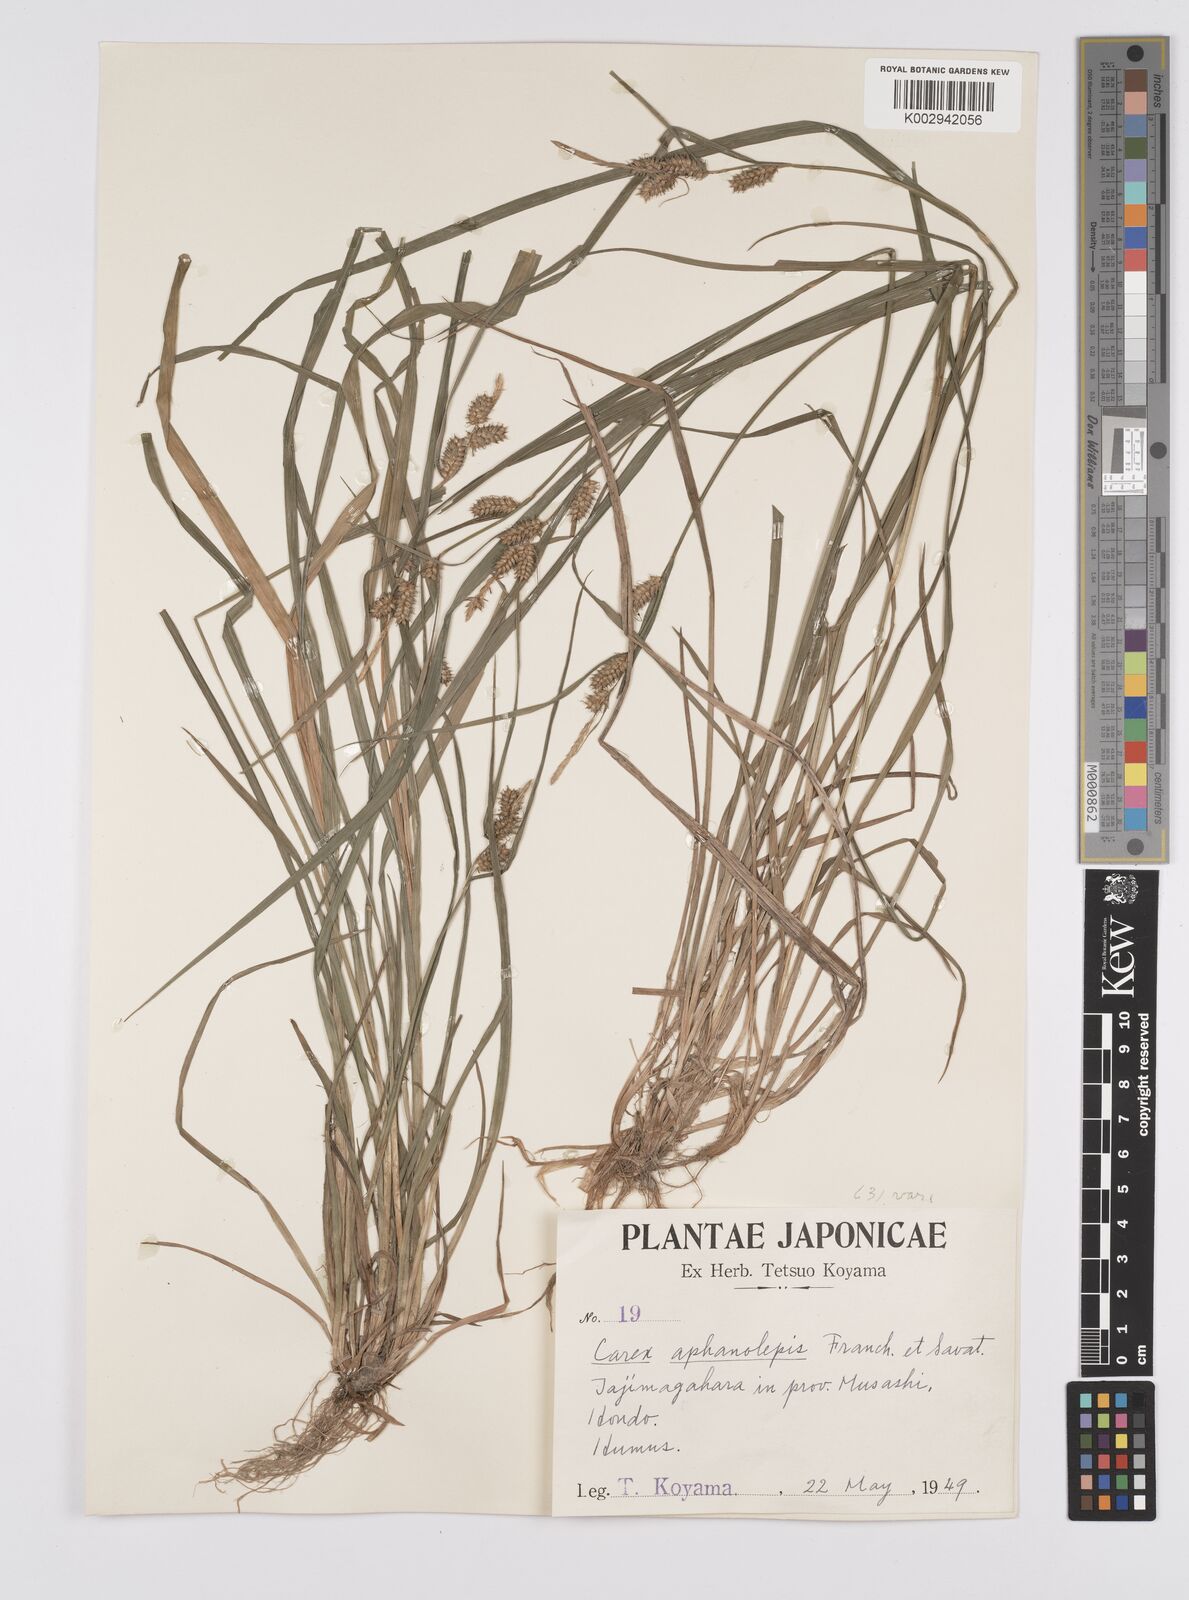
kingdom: Plantae
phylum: Tracheophyta
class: Liliopsida
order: Poales
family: Cyperaceae
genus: Carex
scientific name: Carex japonica
